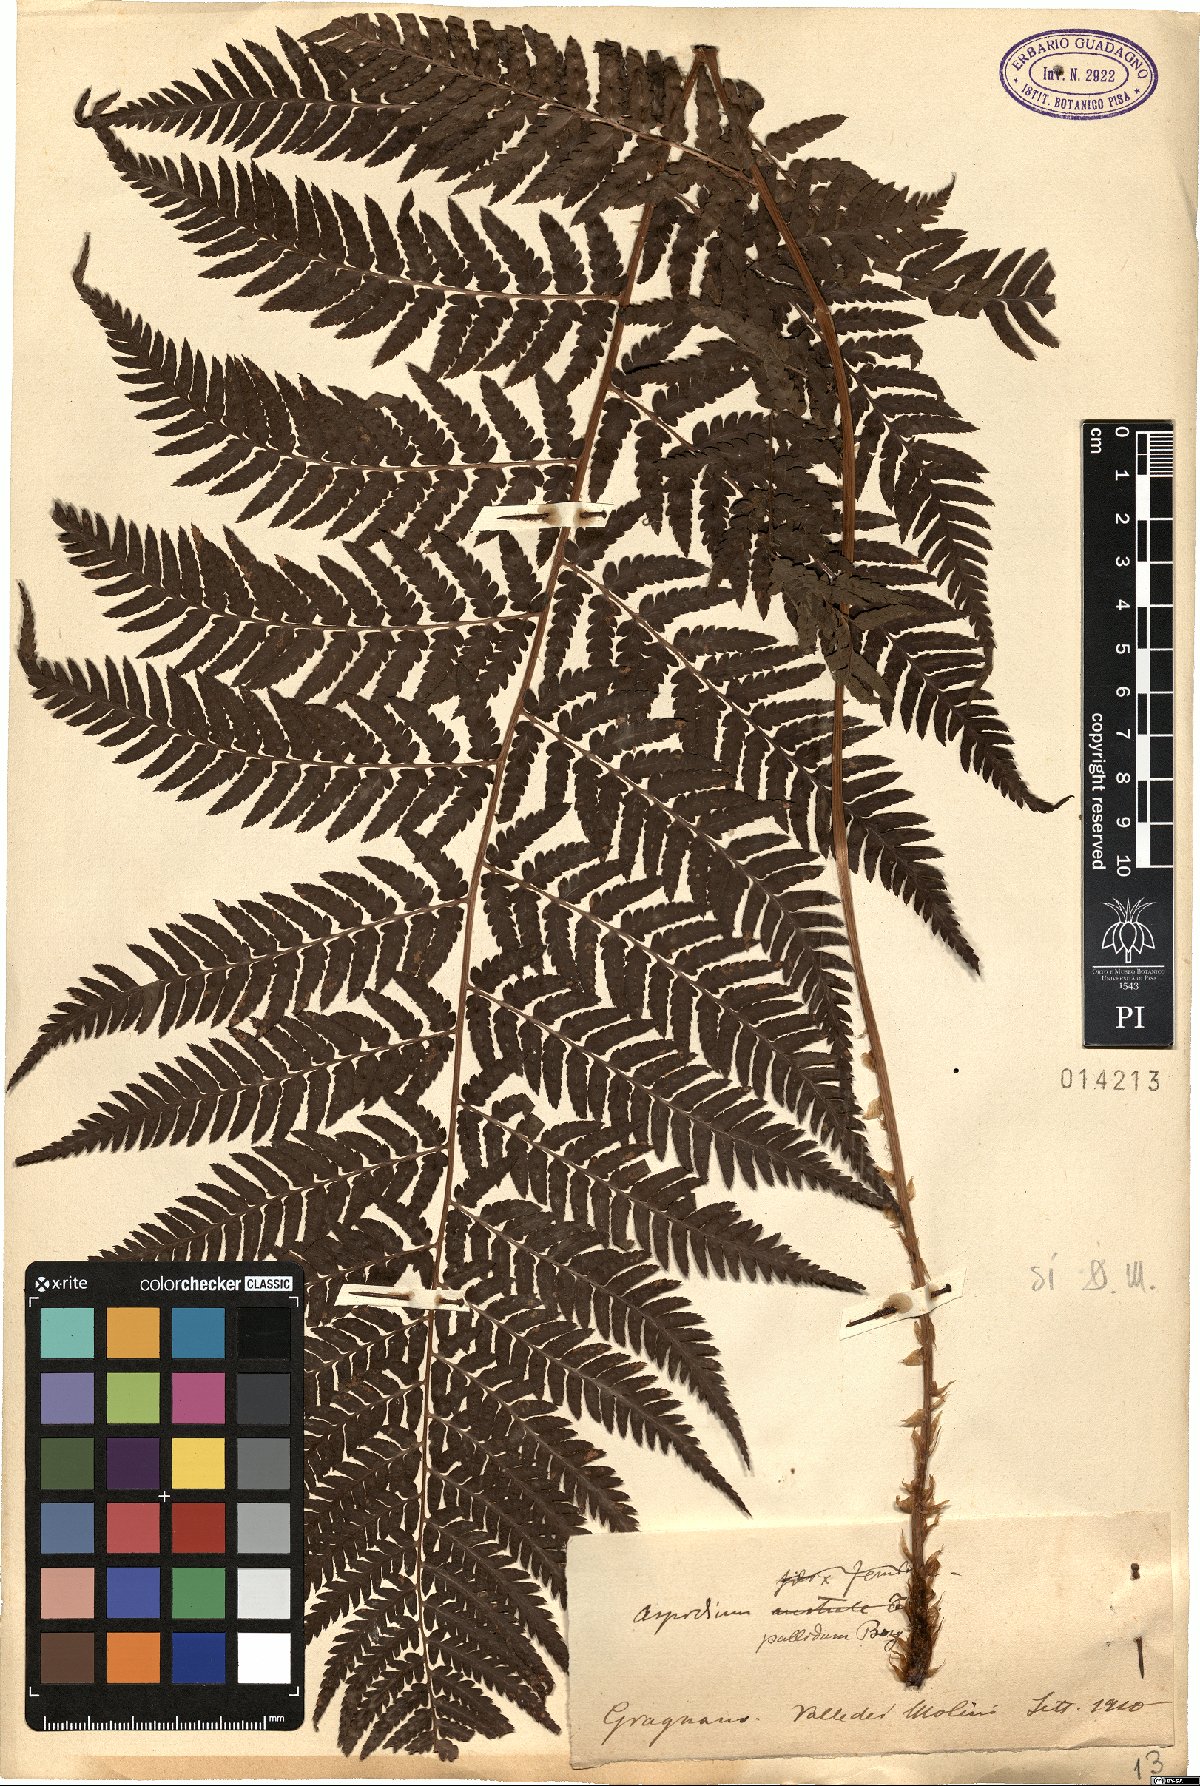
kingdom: Plantae
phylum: Tracheophyta
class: Polypodiopsida
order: Polypodiales
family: Dryopteridaceae
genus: Dryopteris
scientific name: Dryopteris pallida
